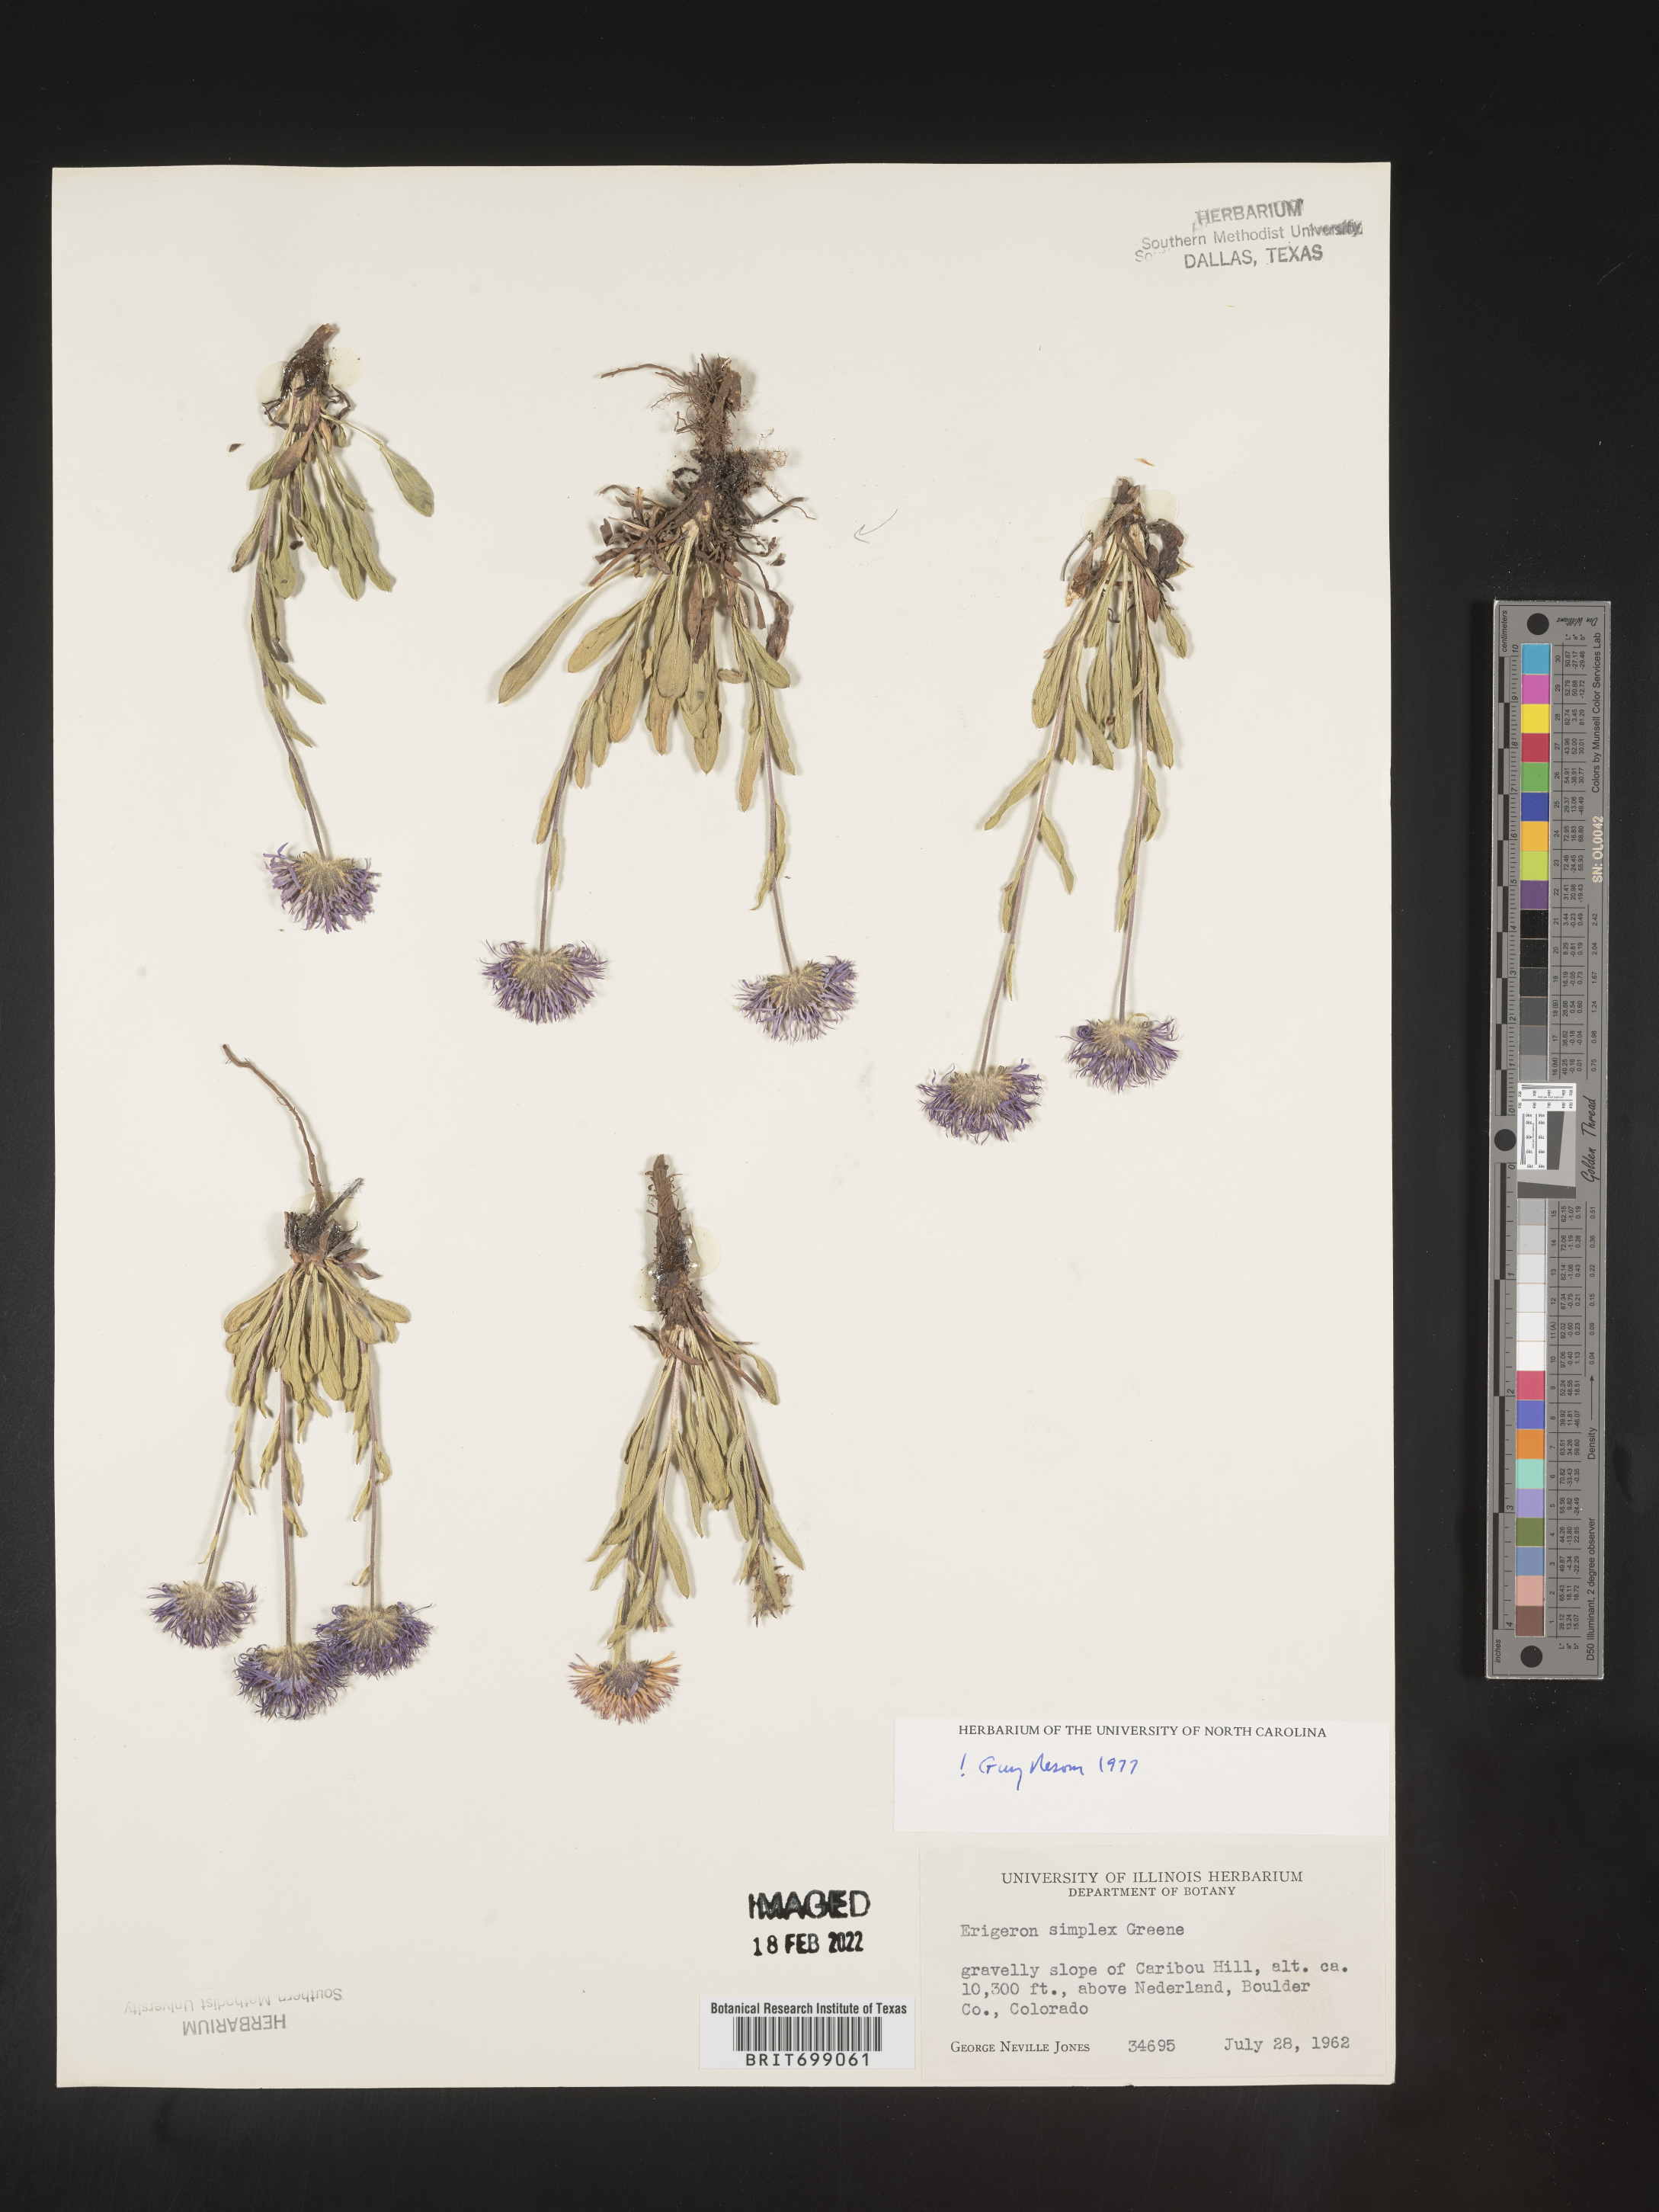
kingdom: Plantae
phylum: Tracheophyta
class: Magnoliopsida
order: Asterales
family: Asteraceae
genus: Erigeron
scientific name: Erigeron caucasicus
